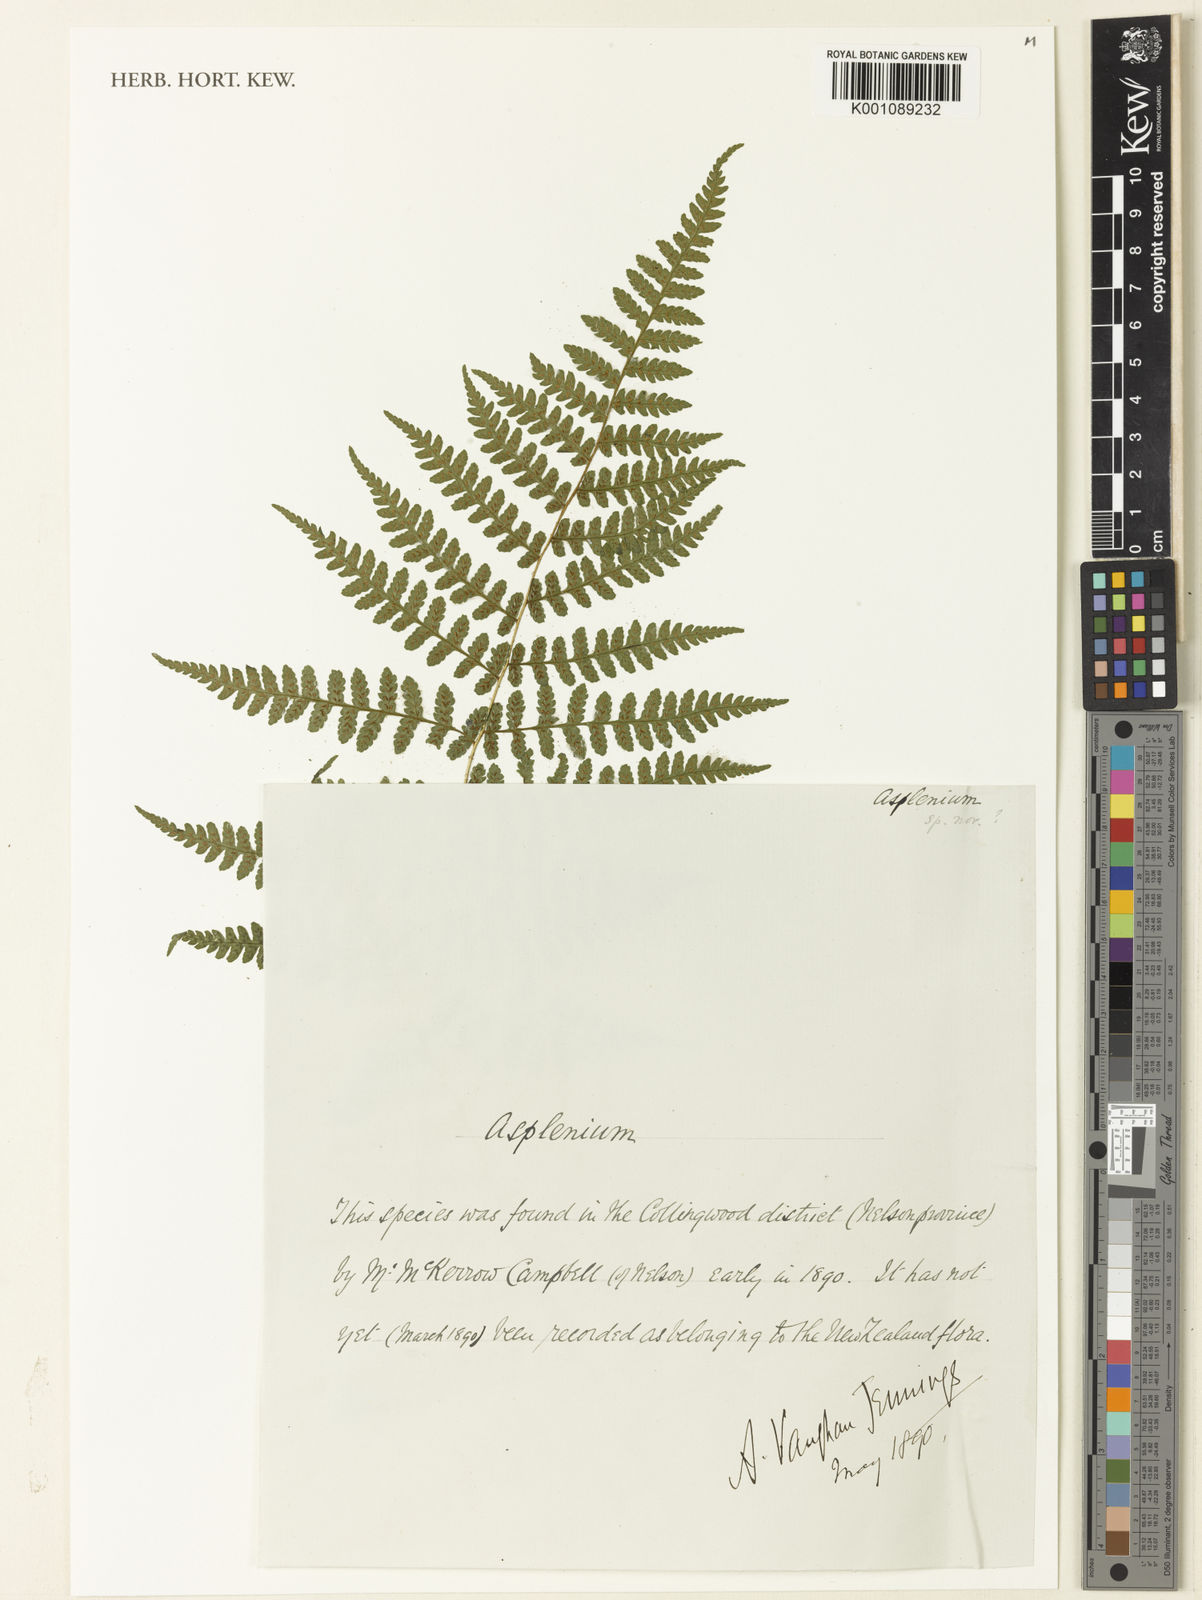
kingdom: Plantae
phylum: Tracheophyta
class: Polypodiopsida
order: Polypodiales
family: Athyriaceae
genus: Deparia
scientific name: Deparia
